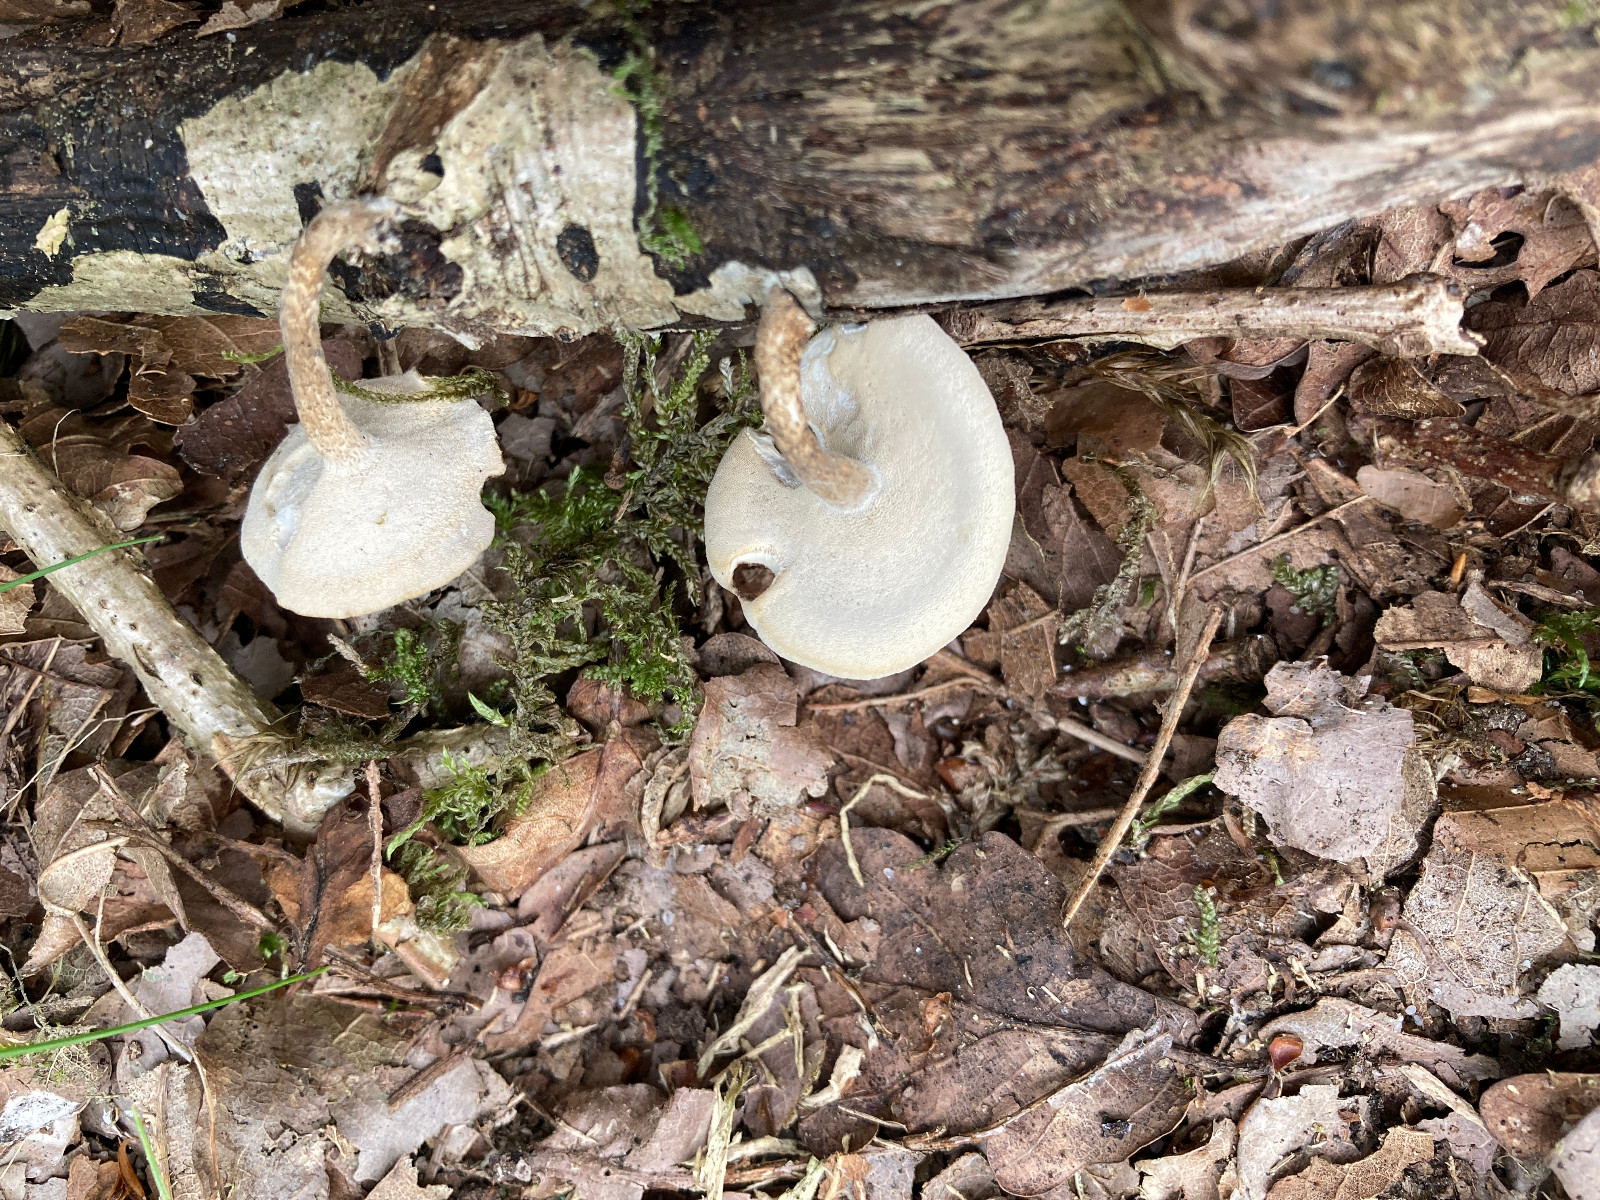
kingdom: Fungi
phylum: Basidiomycota
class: Agaricomycetes
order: Polyporales
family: Polyporaceae
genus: Lentinus
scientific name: Lentinus substrictus
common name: forårs-stilkporesvamp
